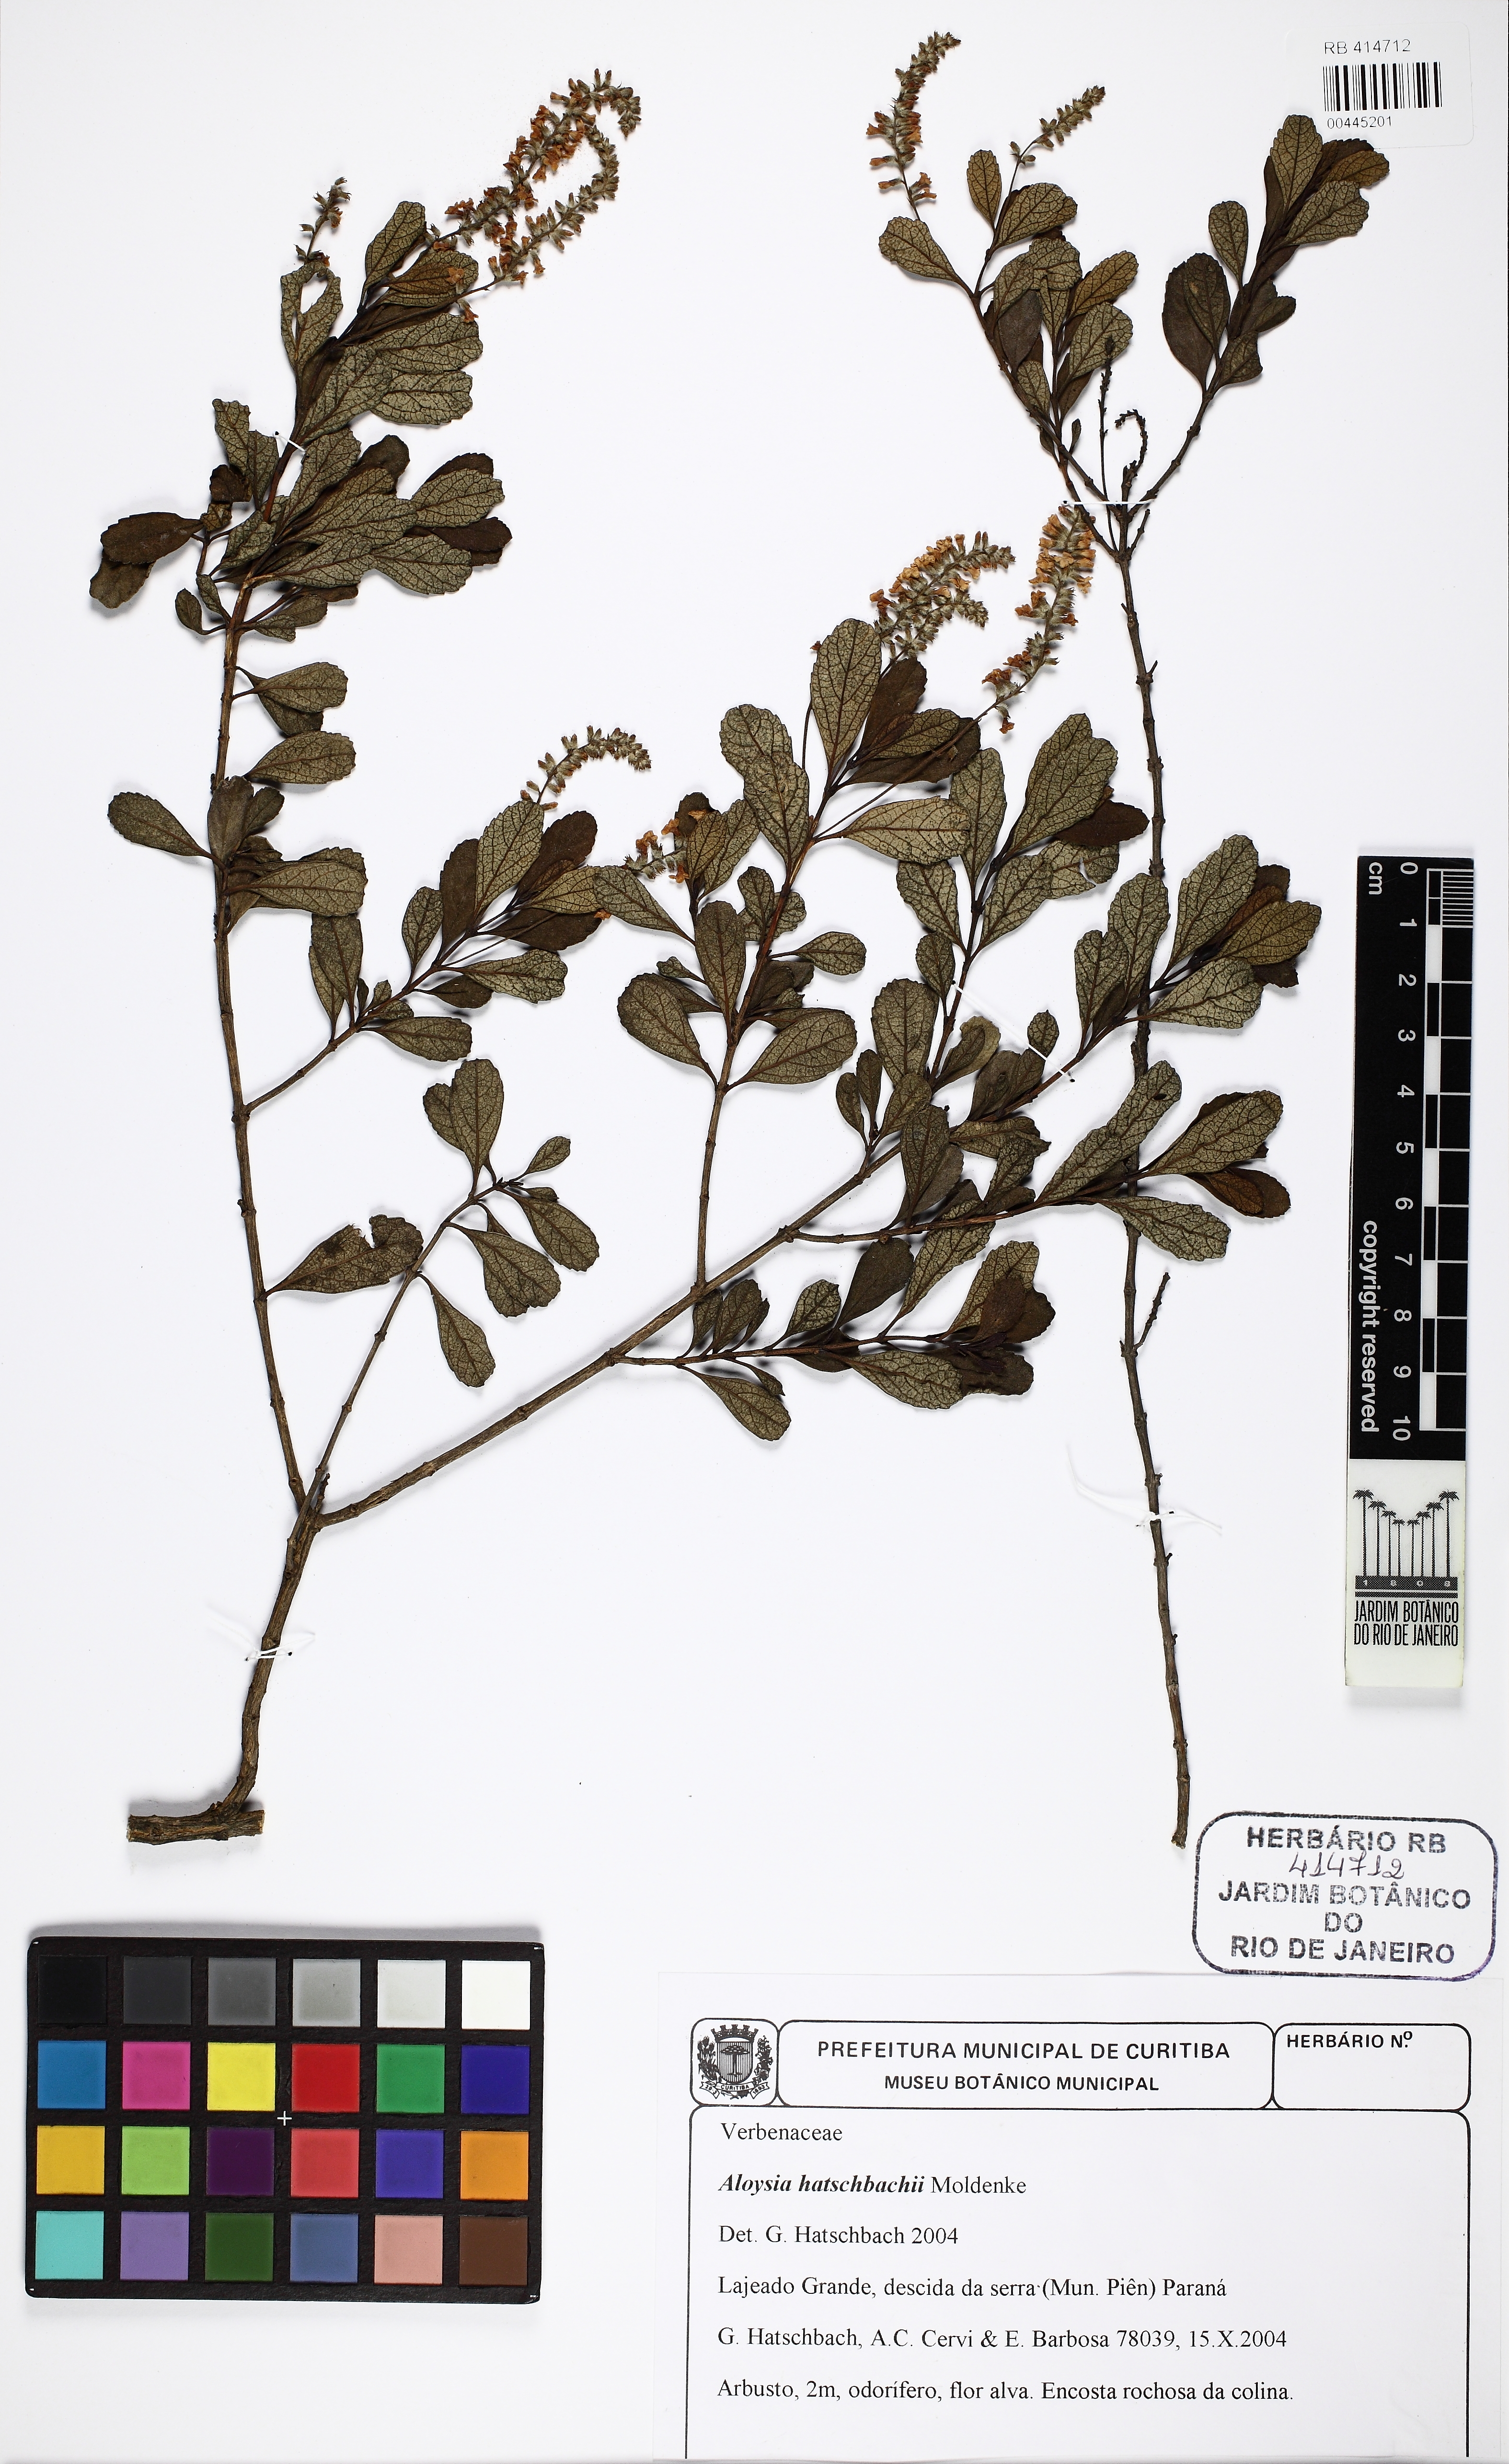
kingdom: Plantae
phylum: Tracheophyta
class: Magnoliopsida
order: Lamiales
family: Verbenaceae
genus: Aloysia
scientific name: Aloysia hatschbachii
